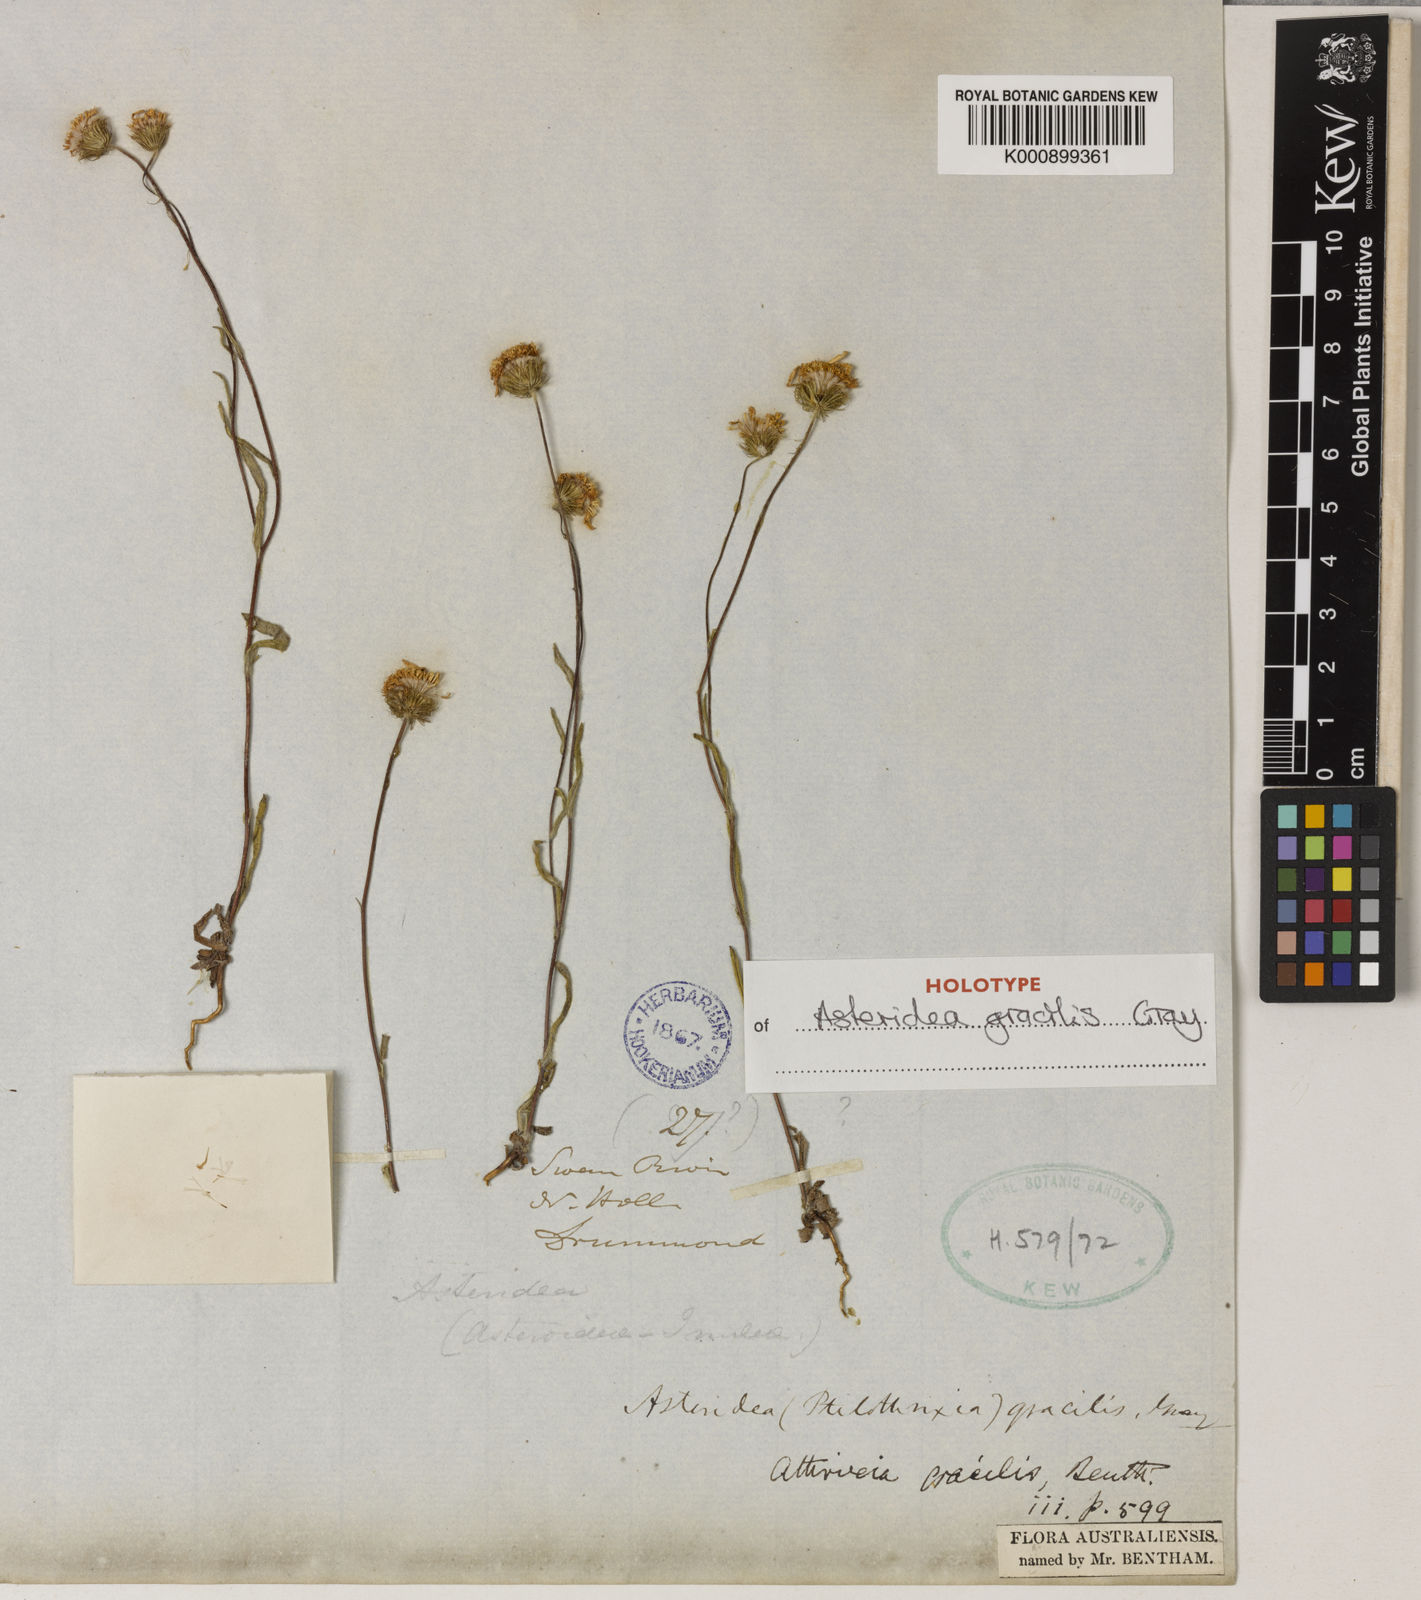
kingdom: Plantae
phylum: Tracheophyta
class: Magnoliopsida
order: Asterales
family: Asteraceae
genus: Asteridea
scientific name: Asteridea gracilis
